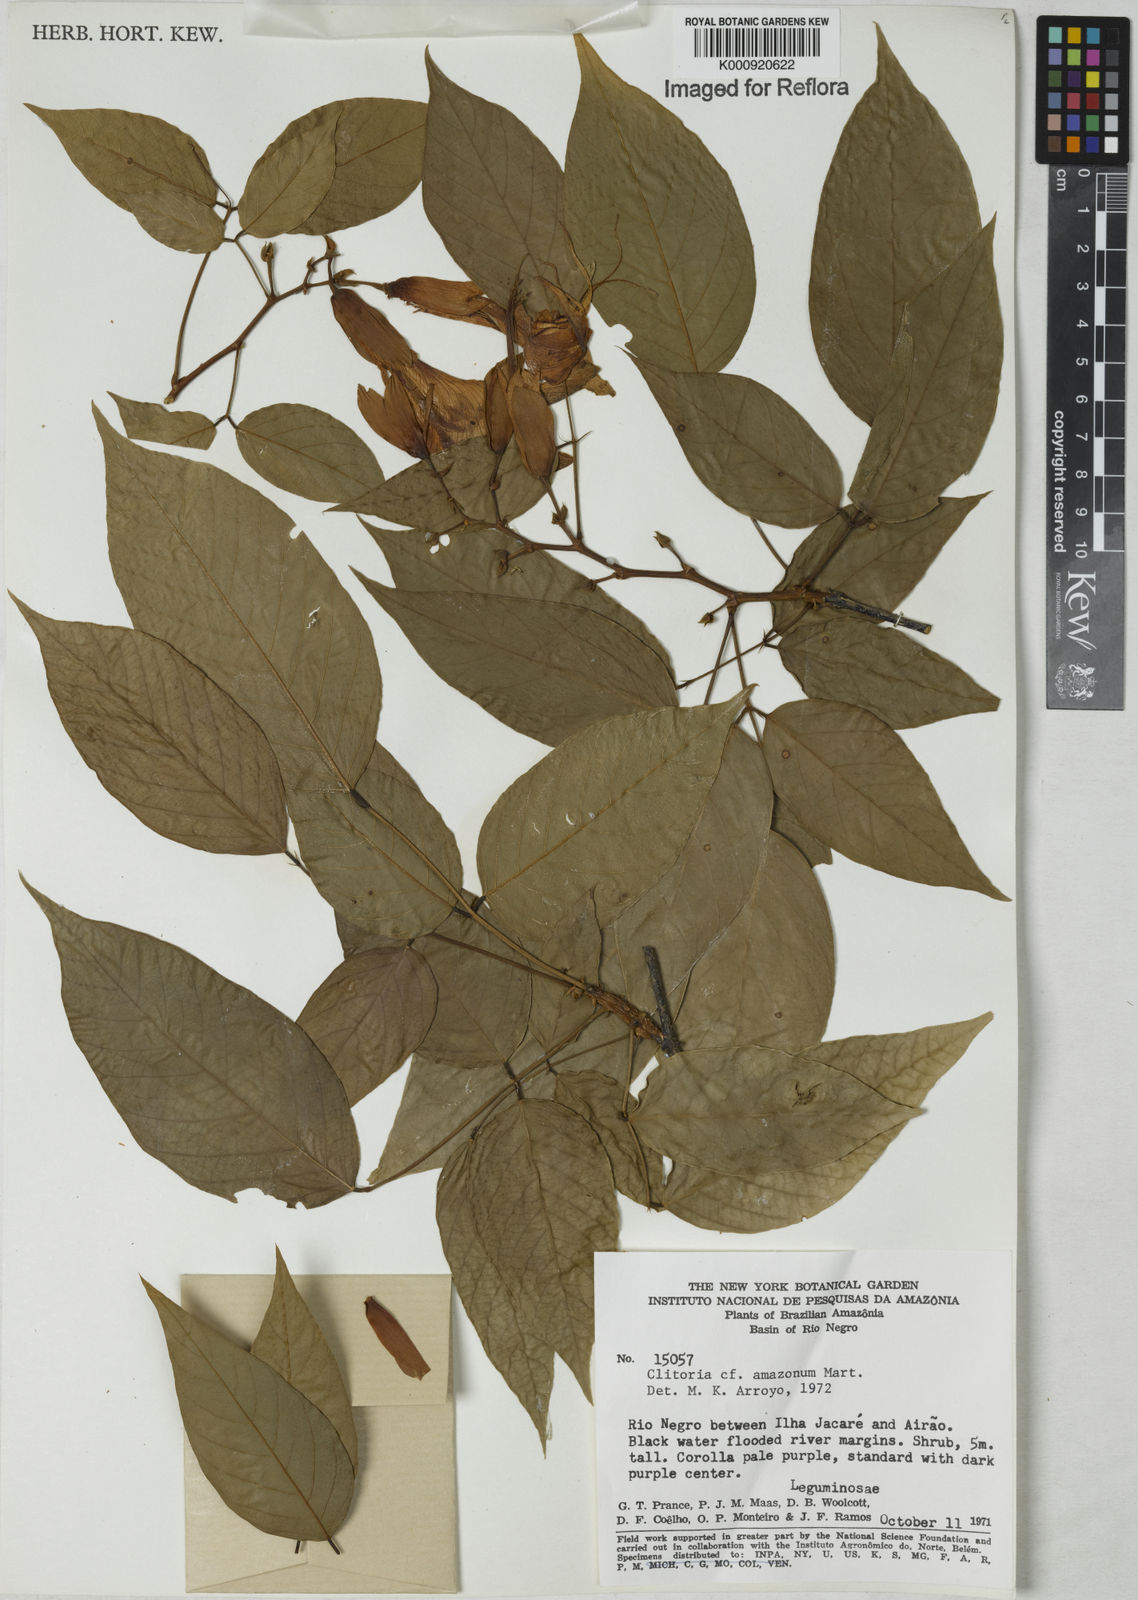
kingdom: Plantae
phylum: Tracheophyta
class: Magnoliopsida
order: Fabales
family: Fabaceae
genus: Clitoria
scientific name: Clitoria amazonum
